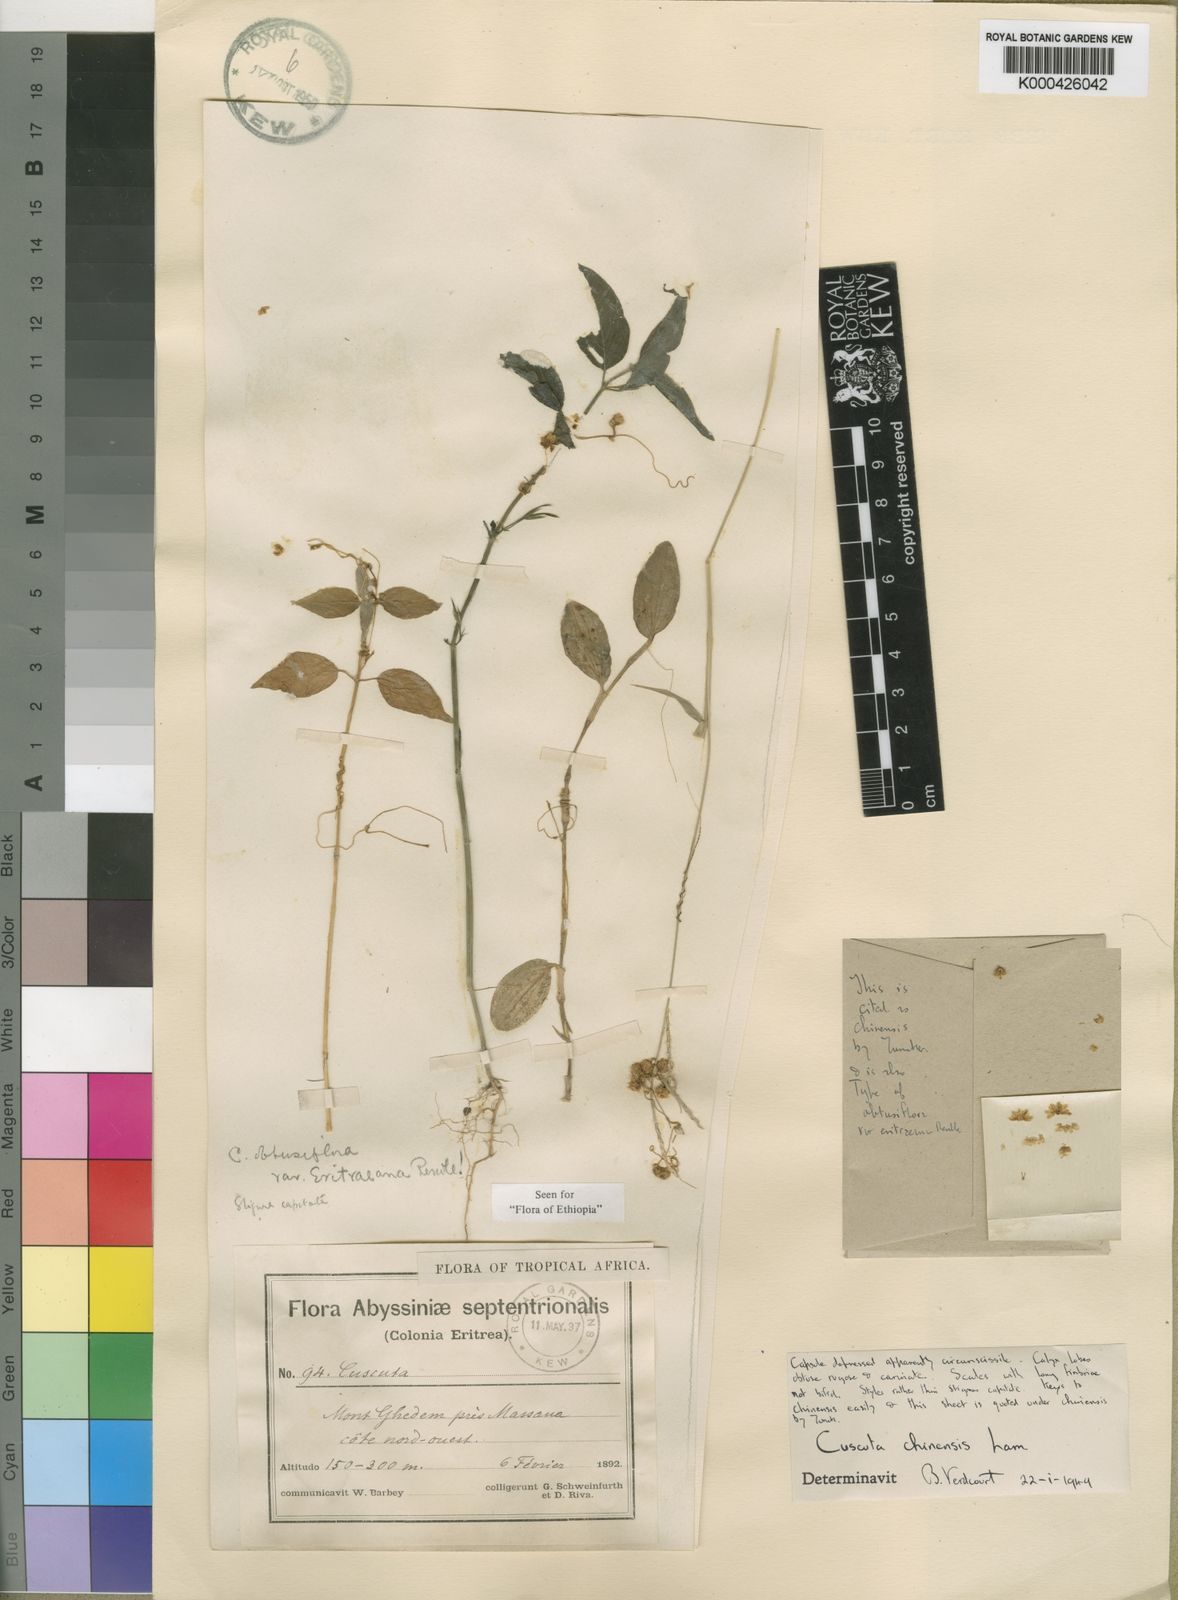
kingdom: Plantae
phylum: Tracheophyta
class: Magnoliopsida
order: Solanales
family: Convolvulaceae
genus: Cuscuta
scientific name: Cuscuta chinensis
